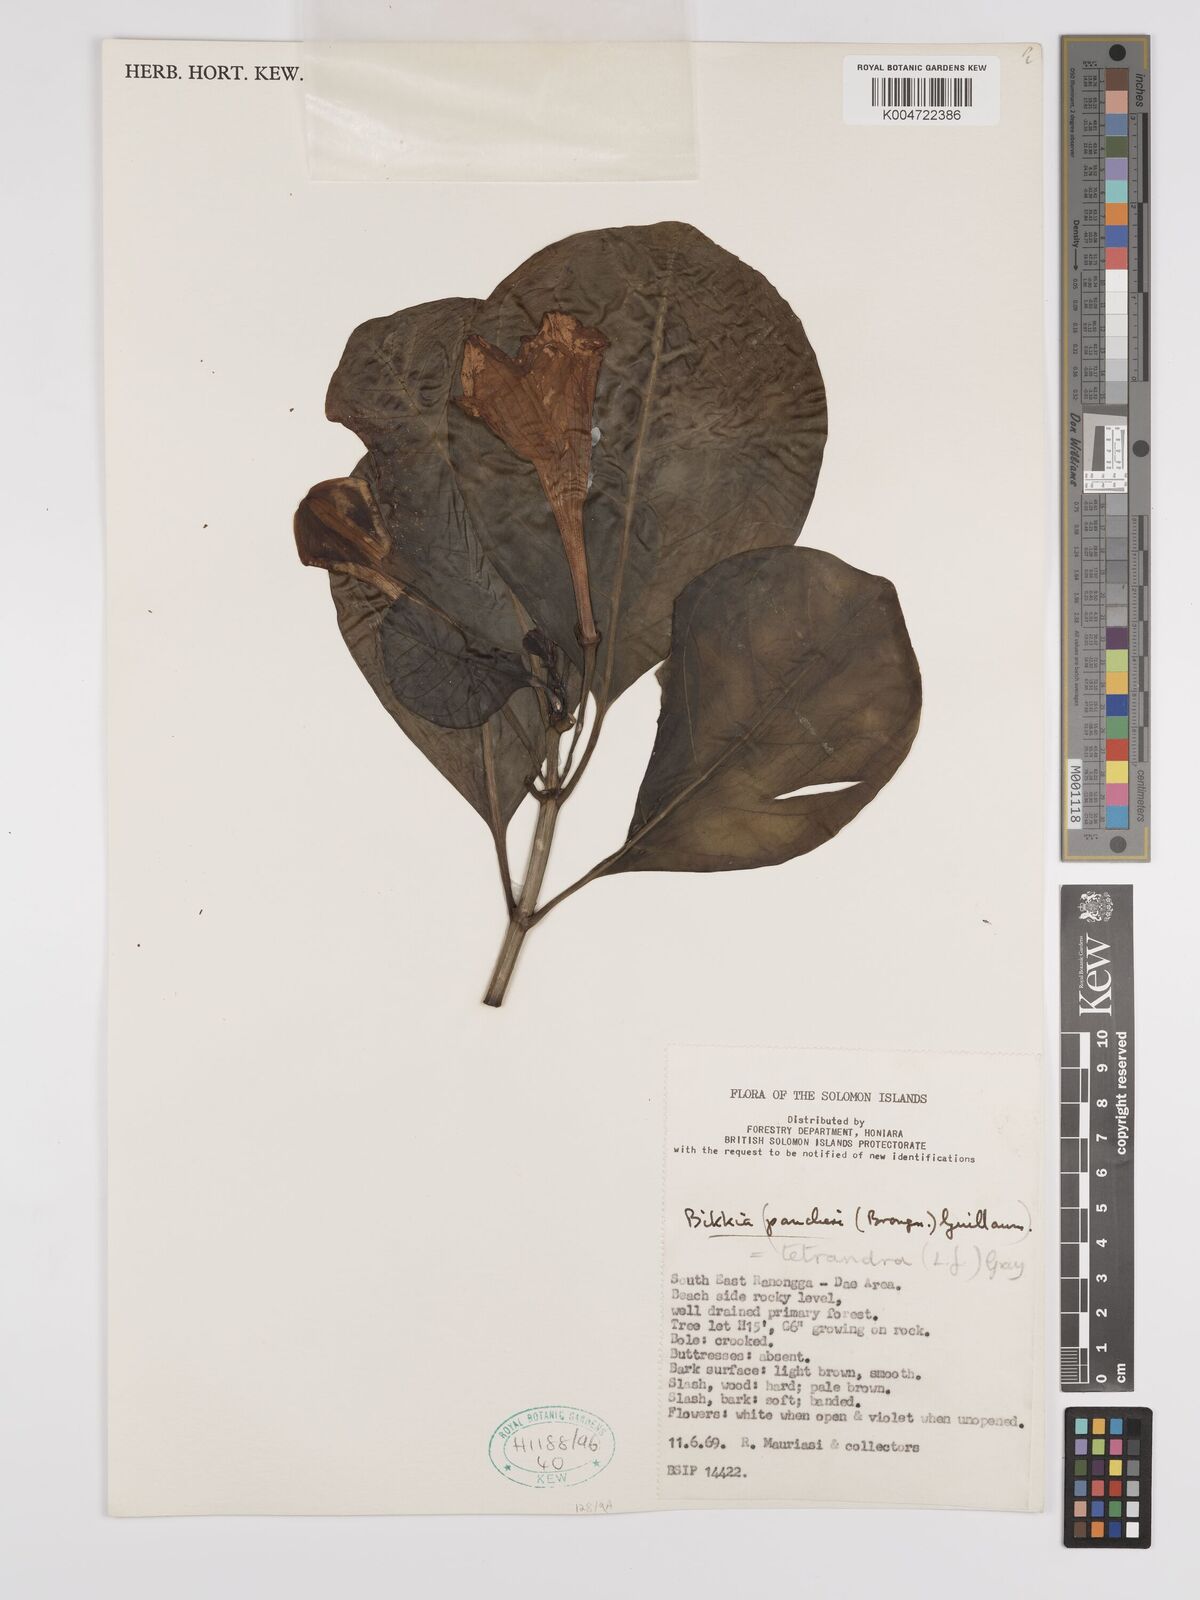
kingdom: Plantae
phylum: Tracheophyta
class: Magnoliopsida
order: Gentianales
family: Rubiaceae
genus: Bikkia
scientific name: Bikkia
